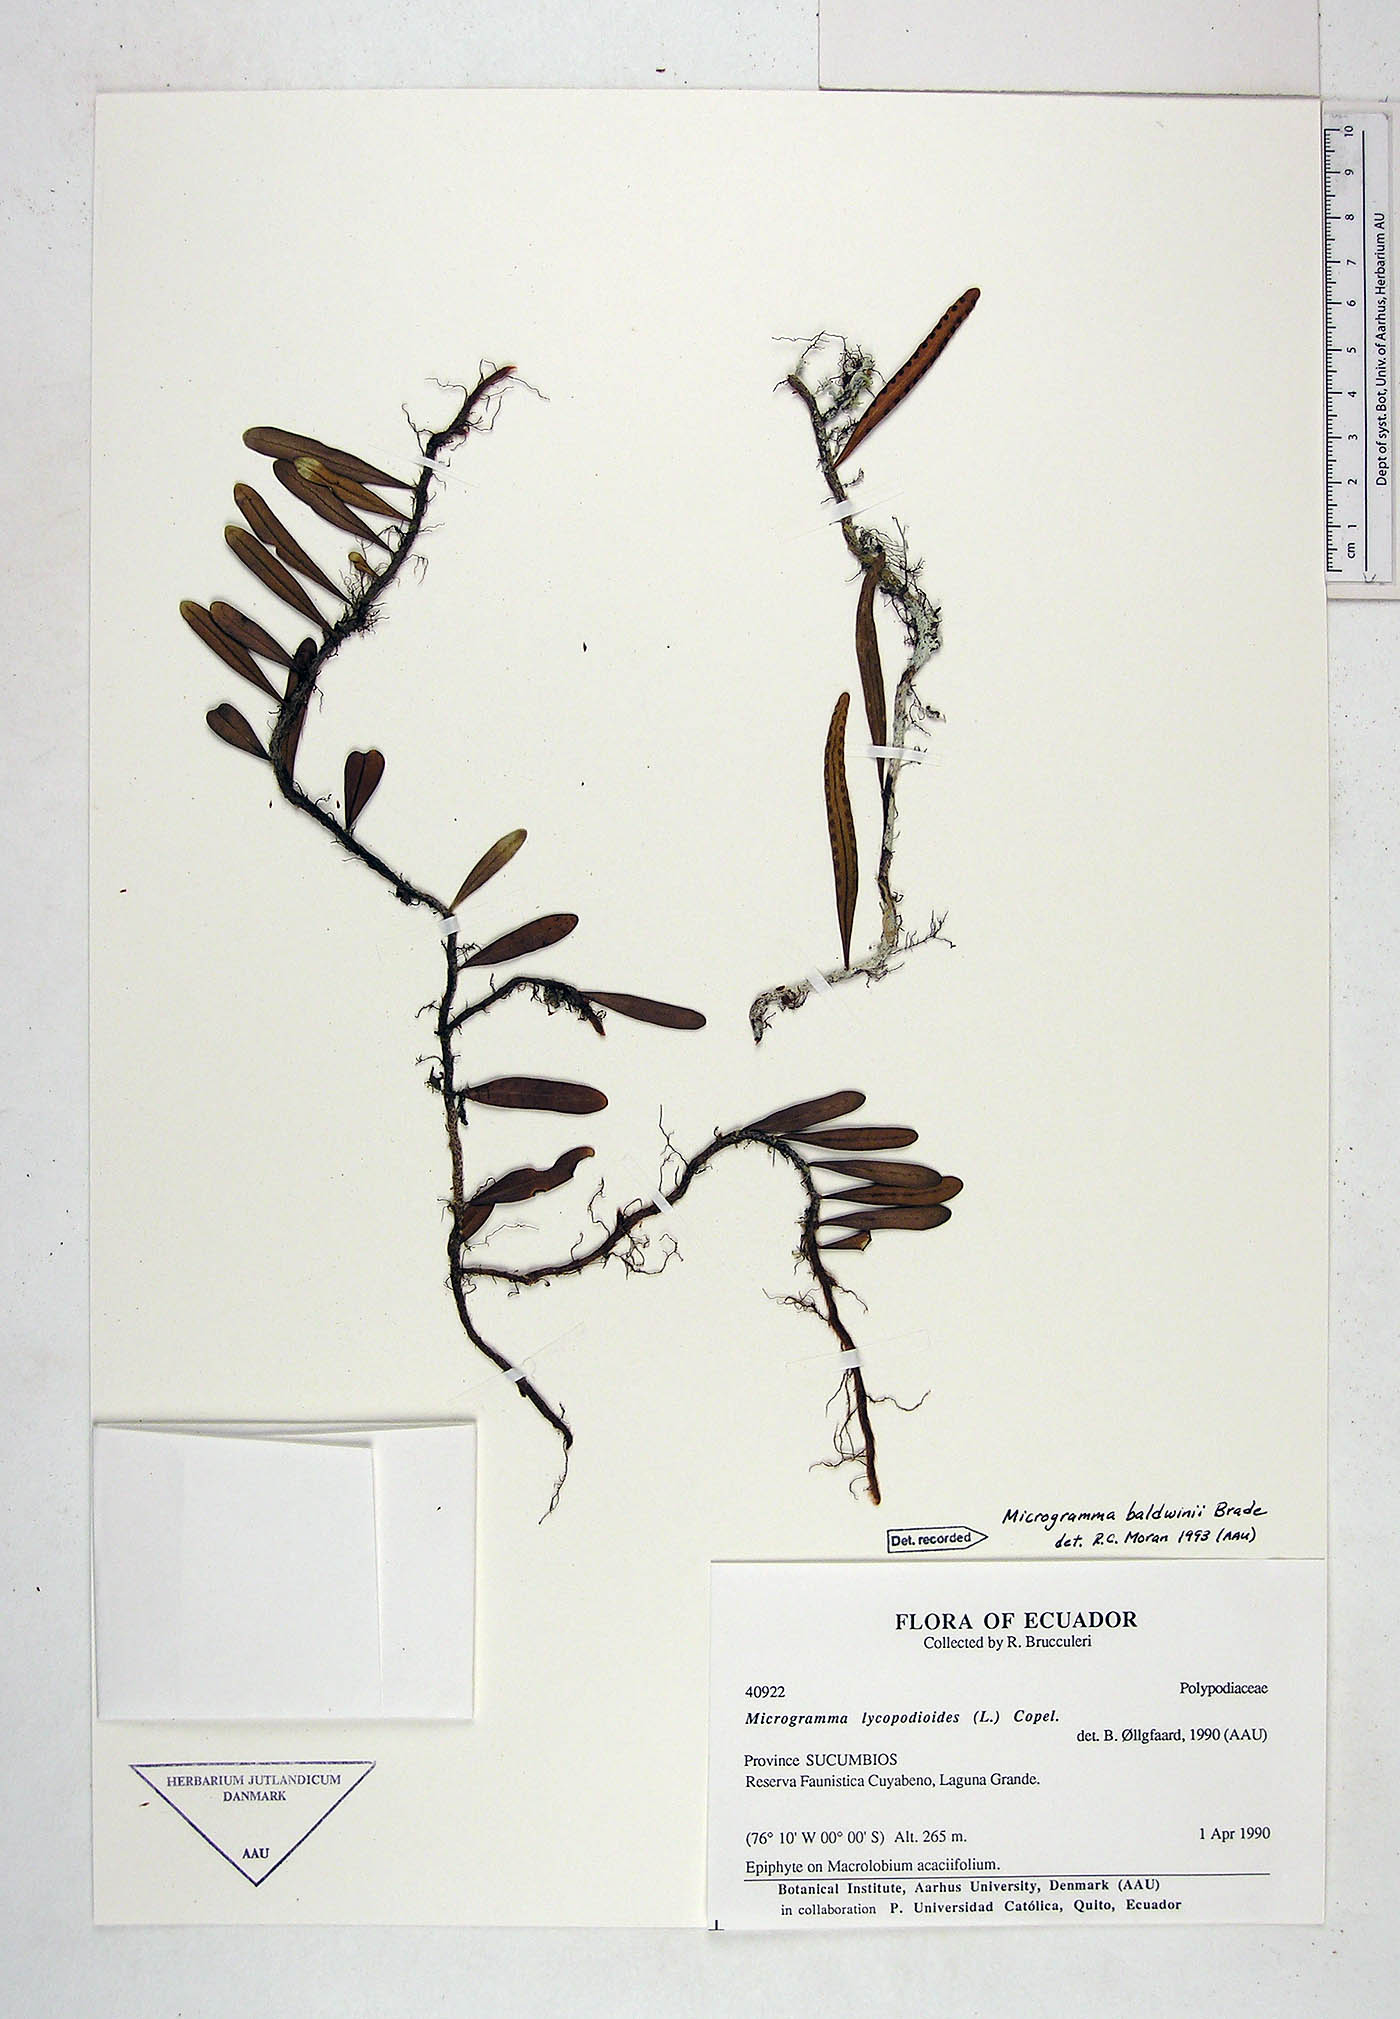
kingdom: Plantae
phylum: Tracheophyta
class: Polypodiopsida
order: Polypodiales
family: Polypodiaceae
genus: Microgramma
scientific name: Microgramma baldwinii
